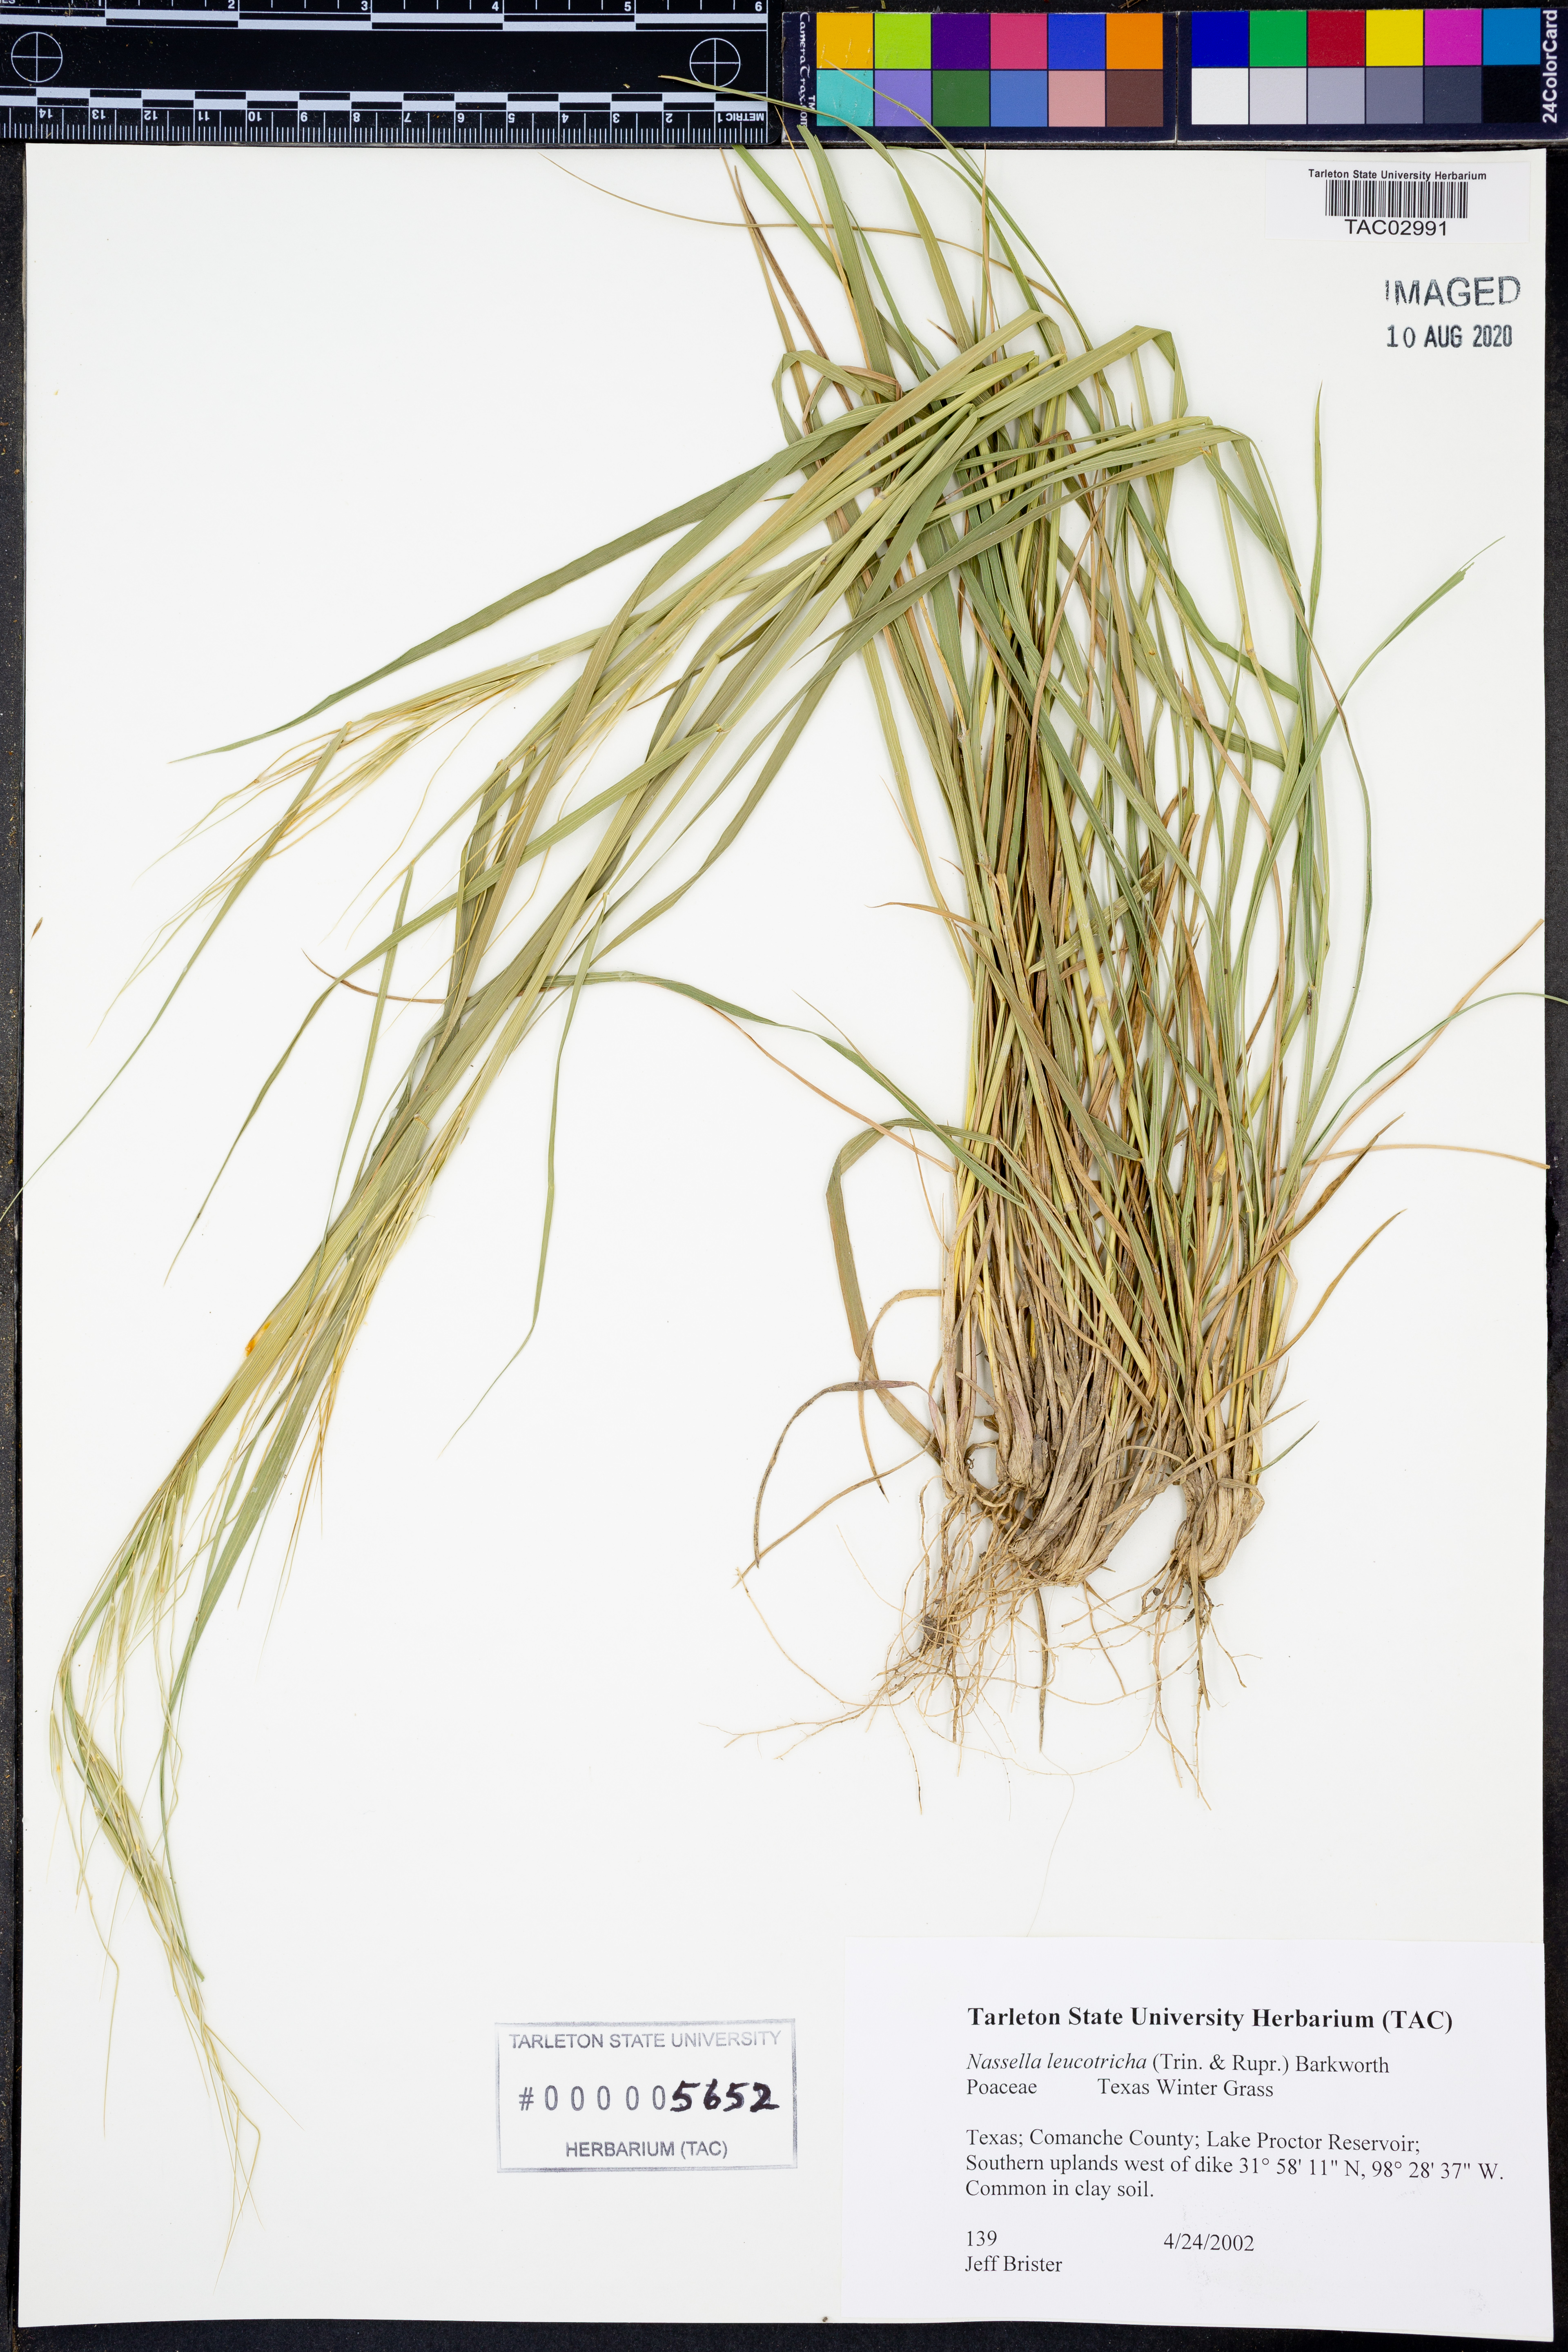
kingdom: Plantae
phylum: Tracheophyta
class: Liliopsida
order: Poales
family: Poaceae
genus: Nassella
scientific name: Nassella leucotricha
